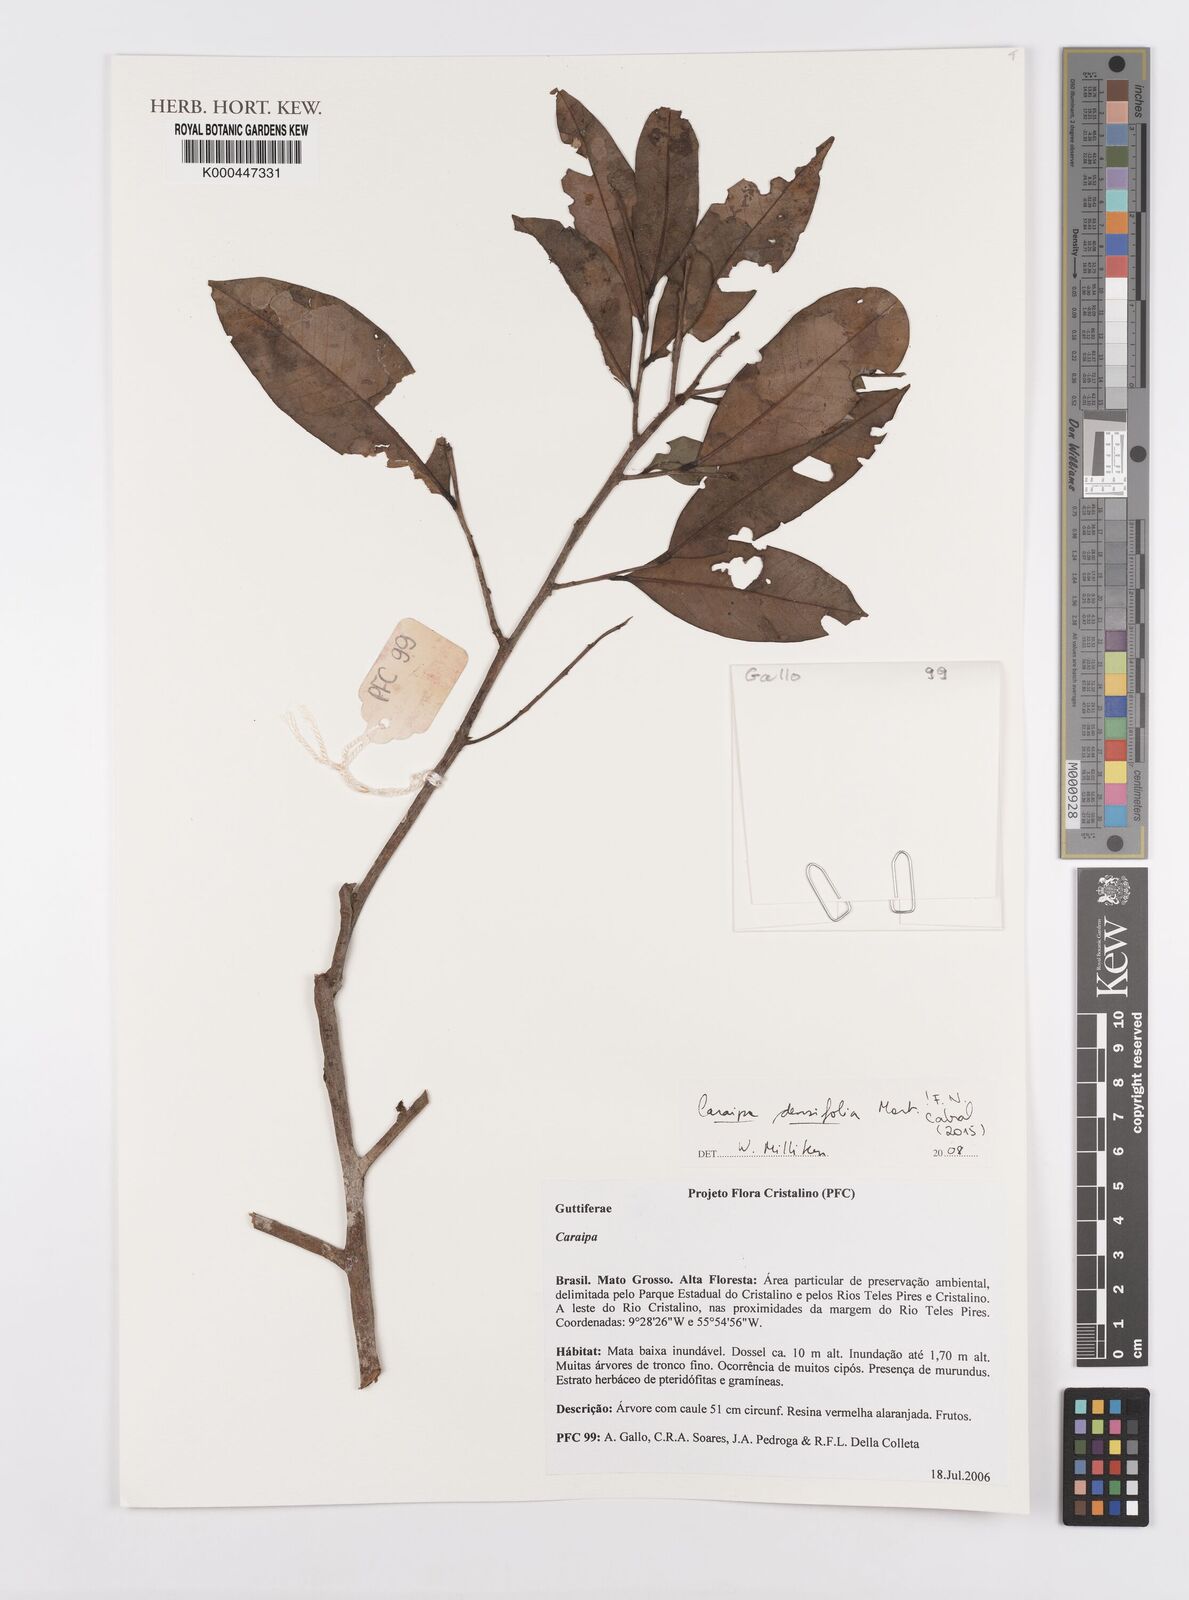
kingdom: Plantae
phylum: Tracheophyta
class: Magnoliopsida
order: Malpighiales
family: Calophyllaceae
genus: Caraipa
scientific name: Caraipa densifolia
